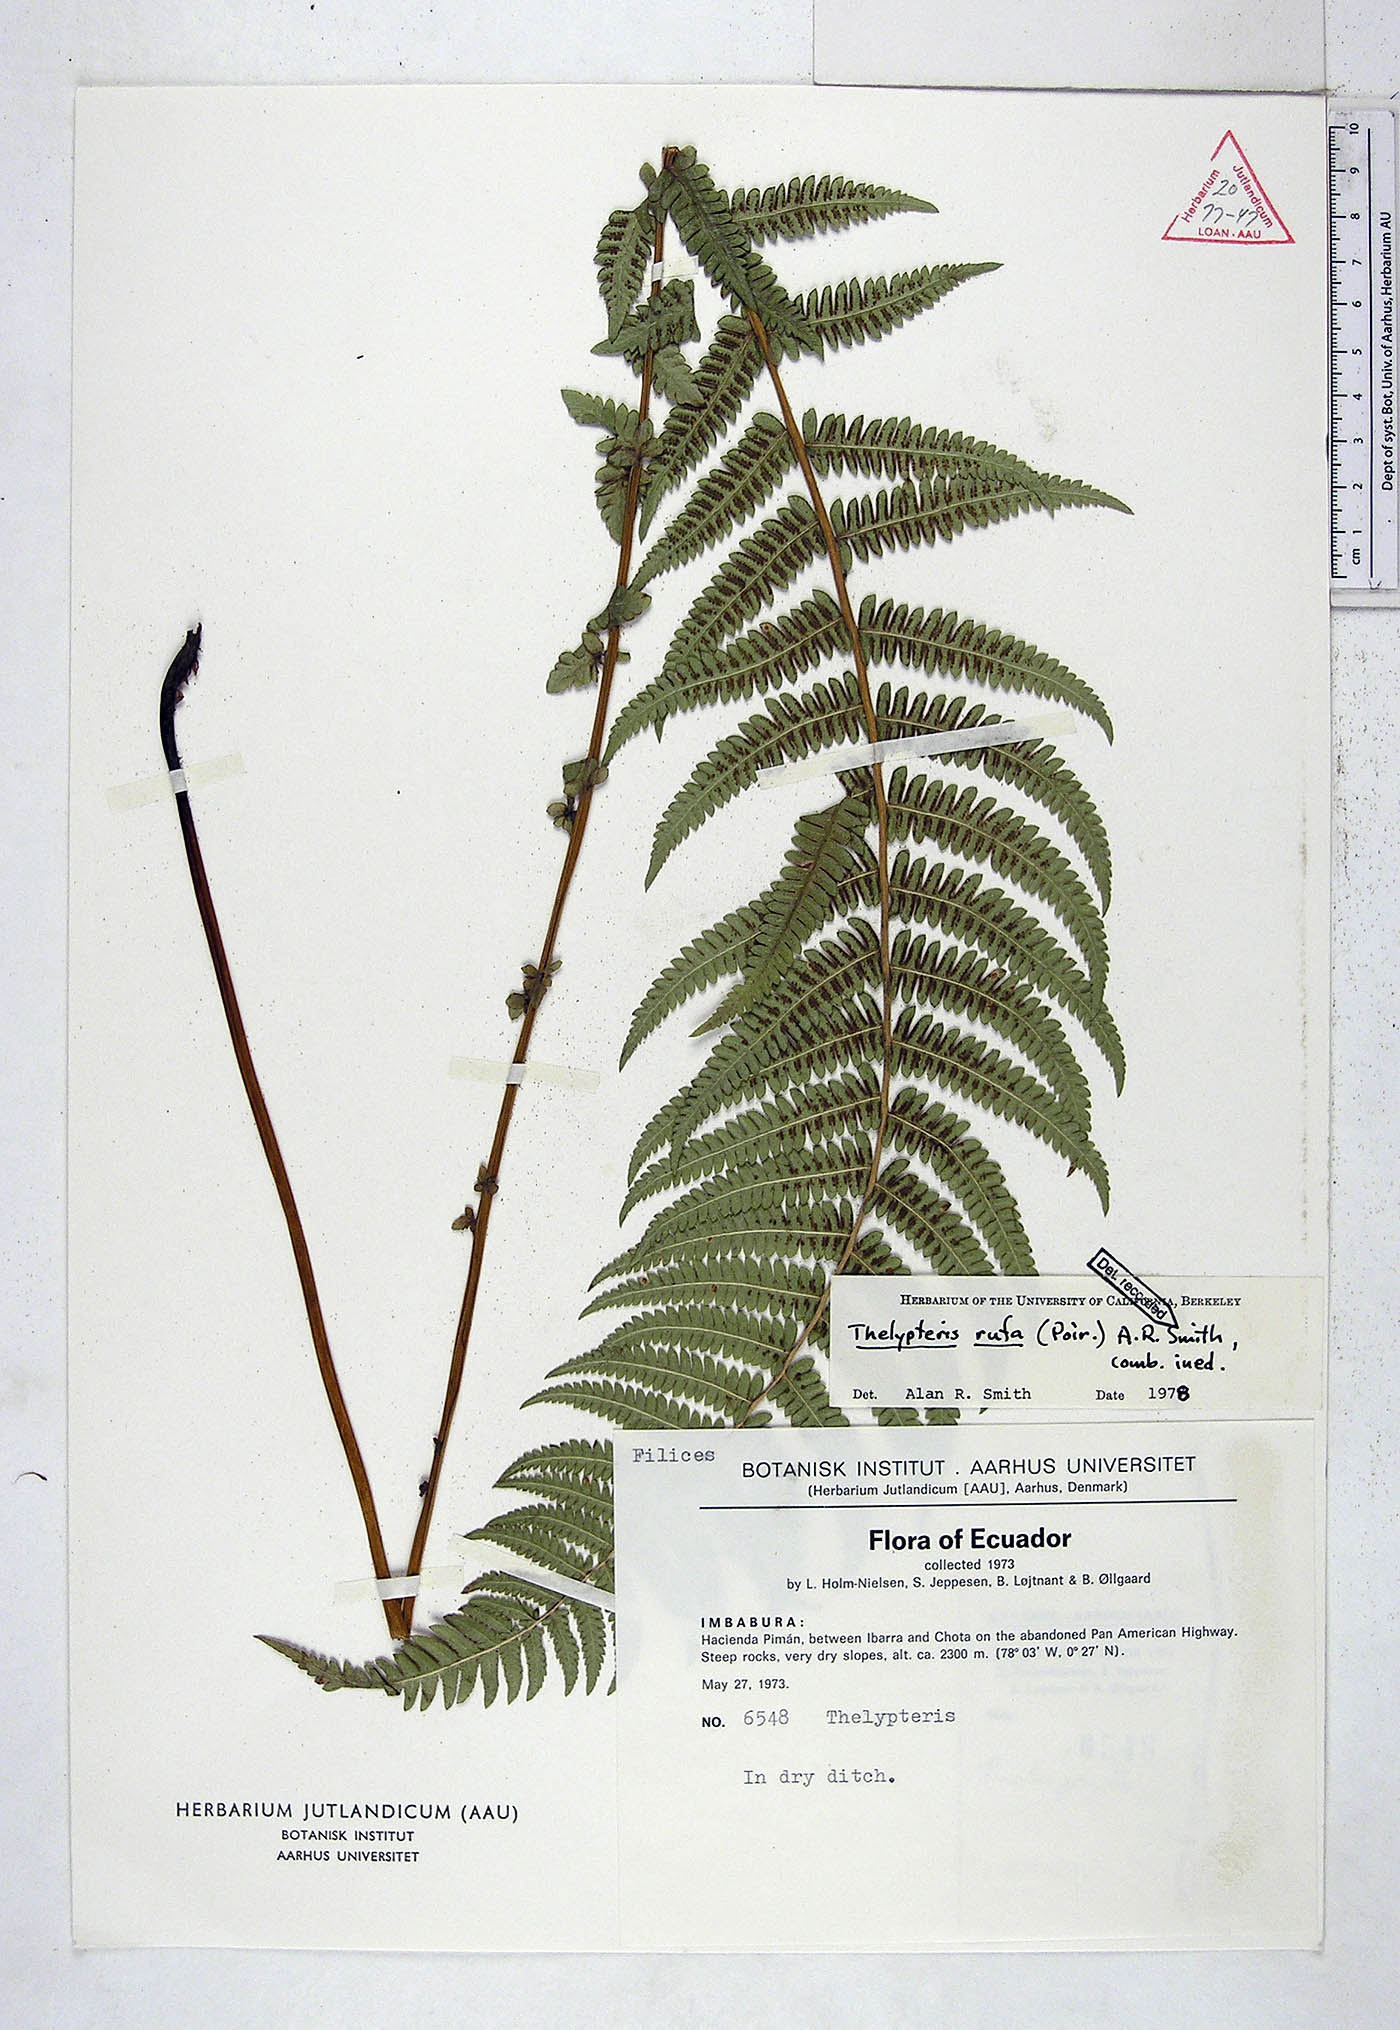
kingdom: Plantae
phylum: Tracheophyta
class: Polypodiopsida
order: Polypodiales
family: Thelypteridaceae
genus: Amauropelta
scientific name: Amauropelta rufa
